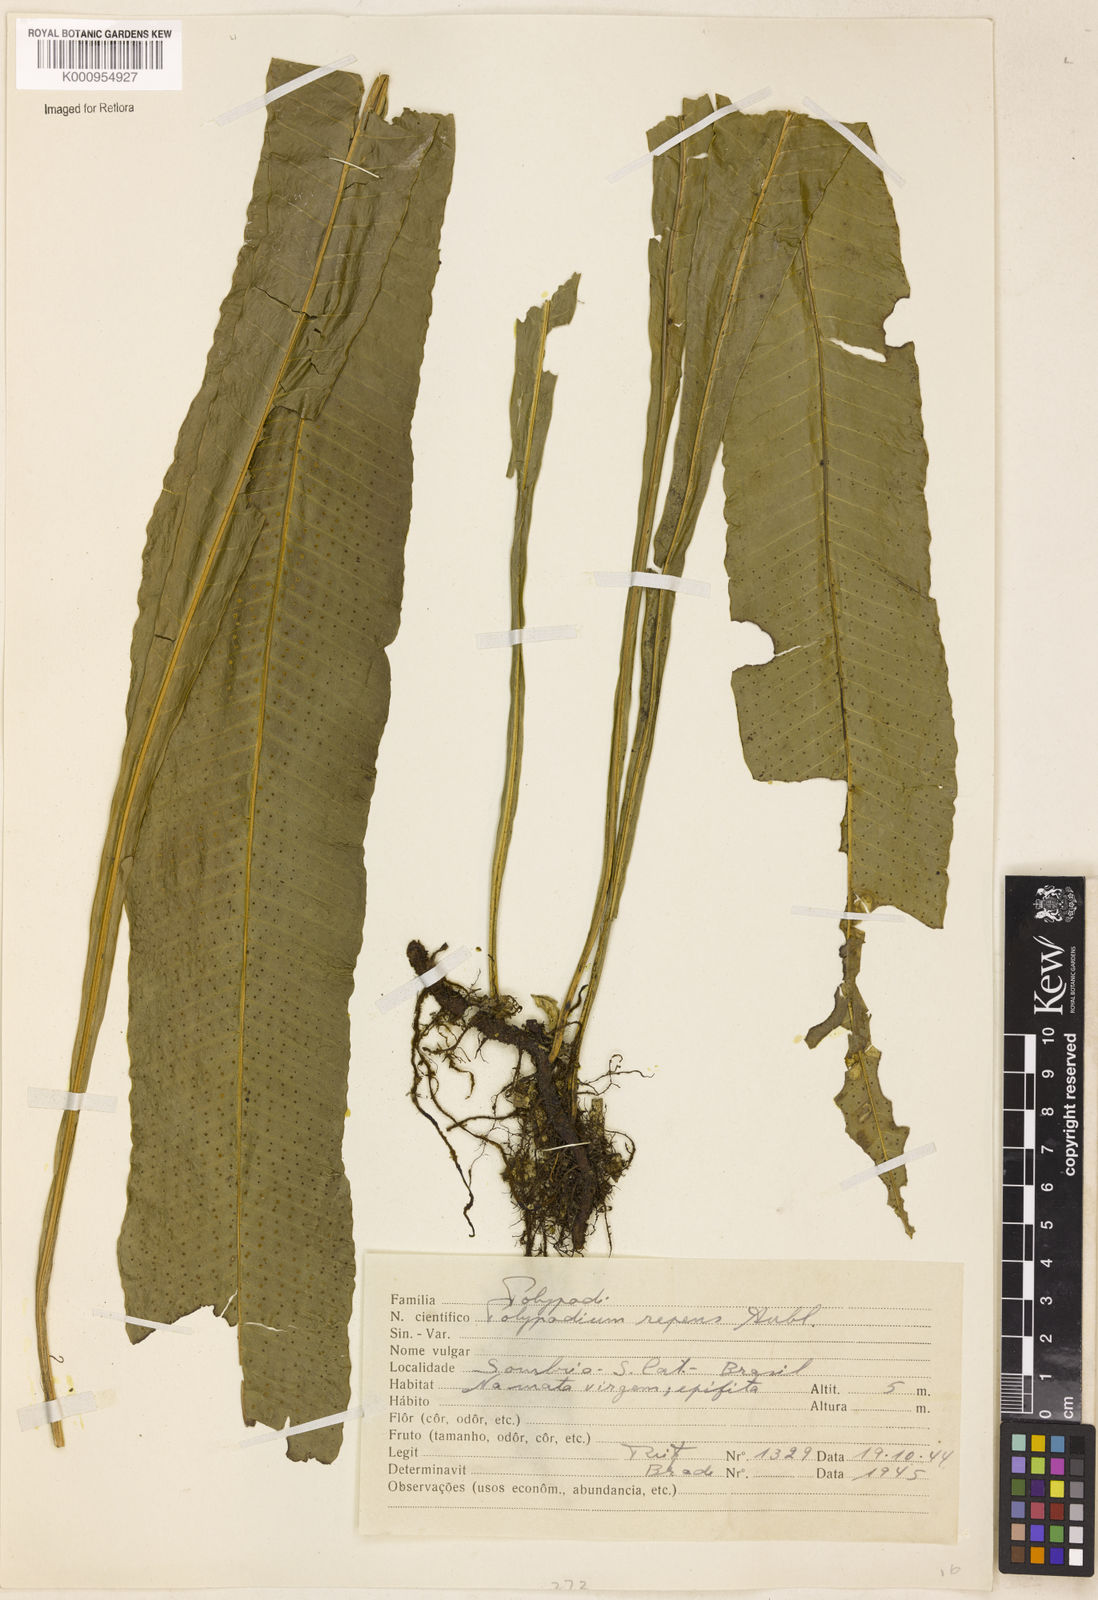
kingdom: Plantae
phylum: Tracheophyta
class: Polypodiopsida
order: Polypodiales
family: Polypodiaceae
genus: Campyloneurum
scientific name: Campyloneurum repens
